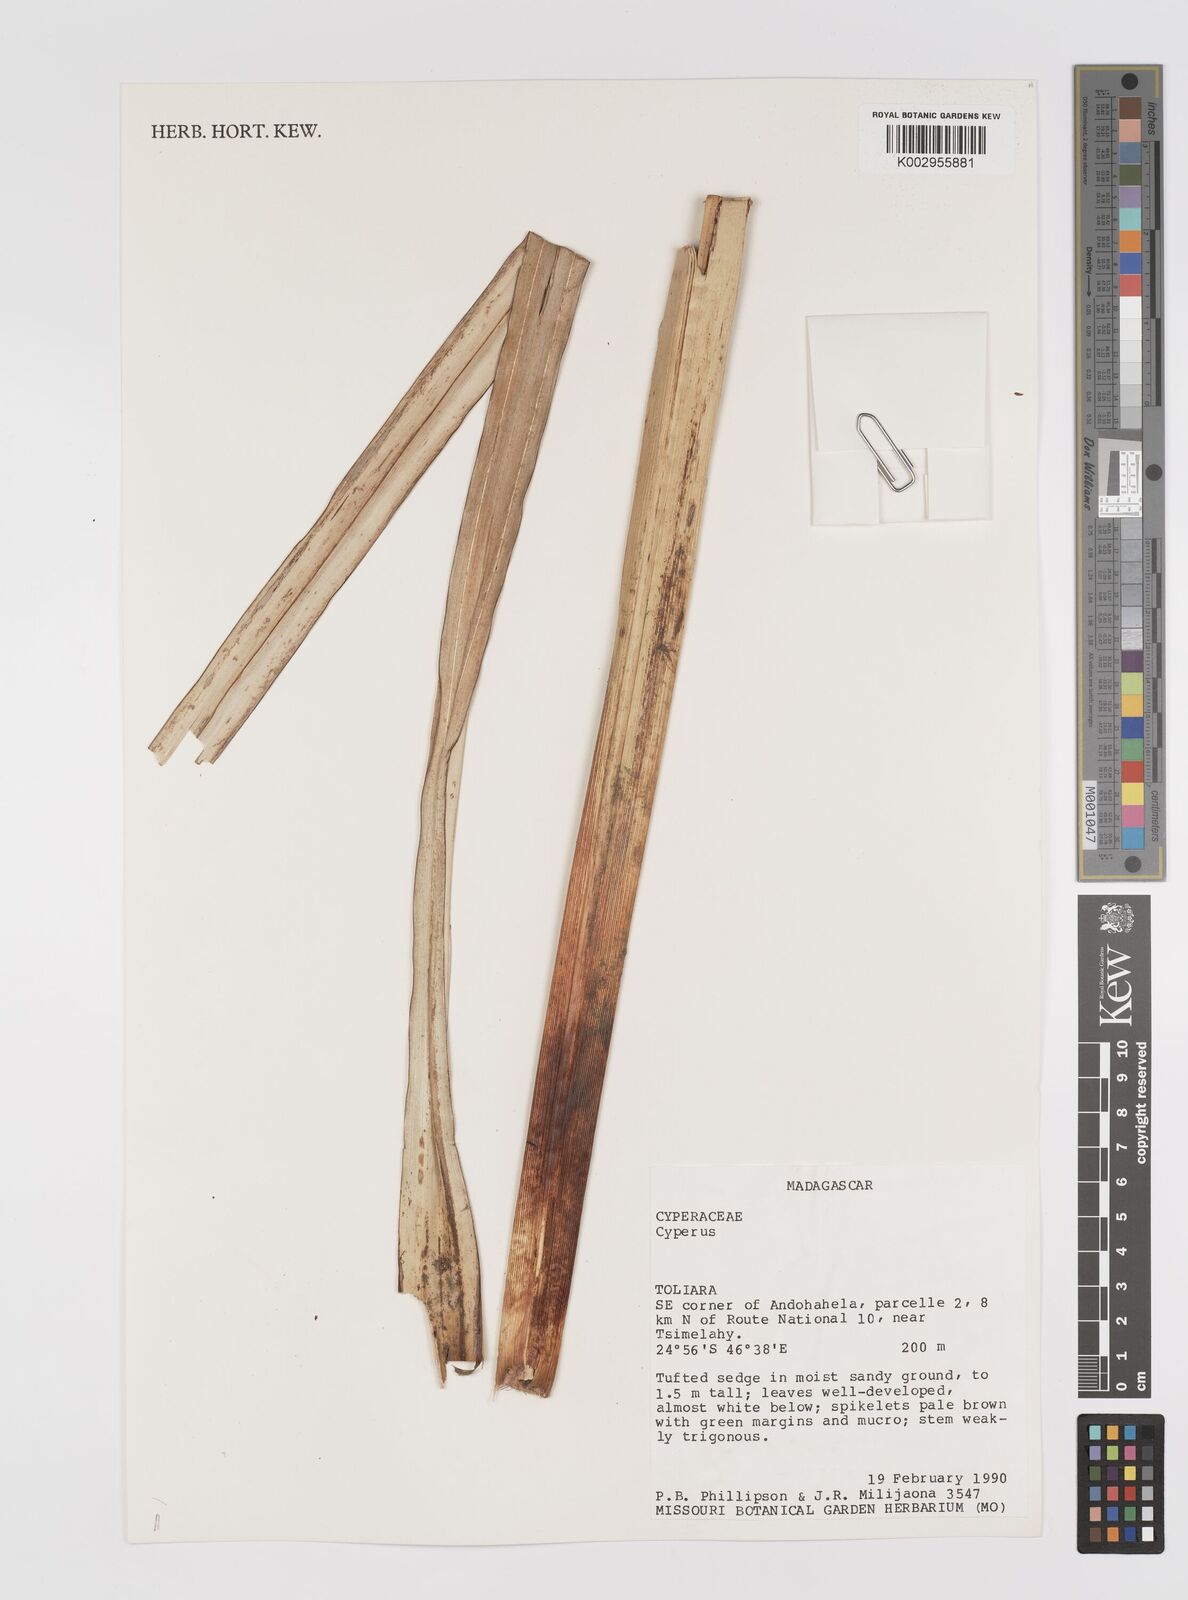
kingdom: Plantae
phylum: Tracheophyta
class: Liliopsida
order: Poales
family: Cyperaceae
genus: Cyperus
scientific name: Cyperus
